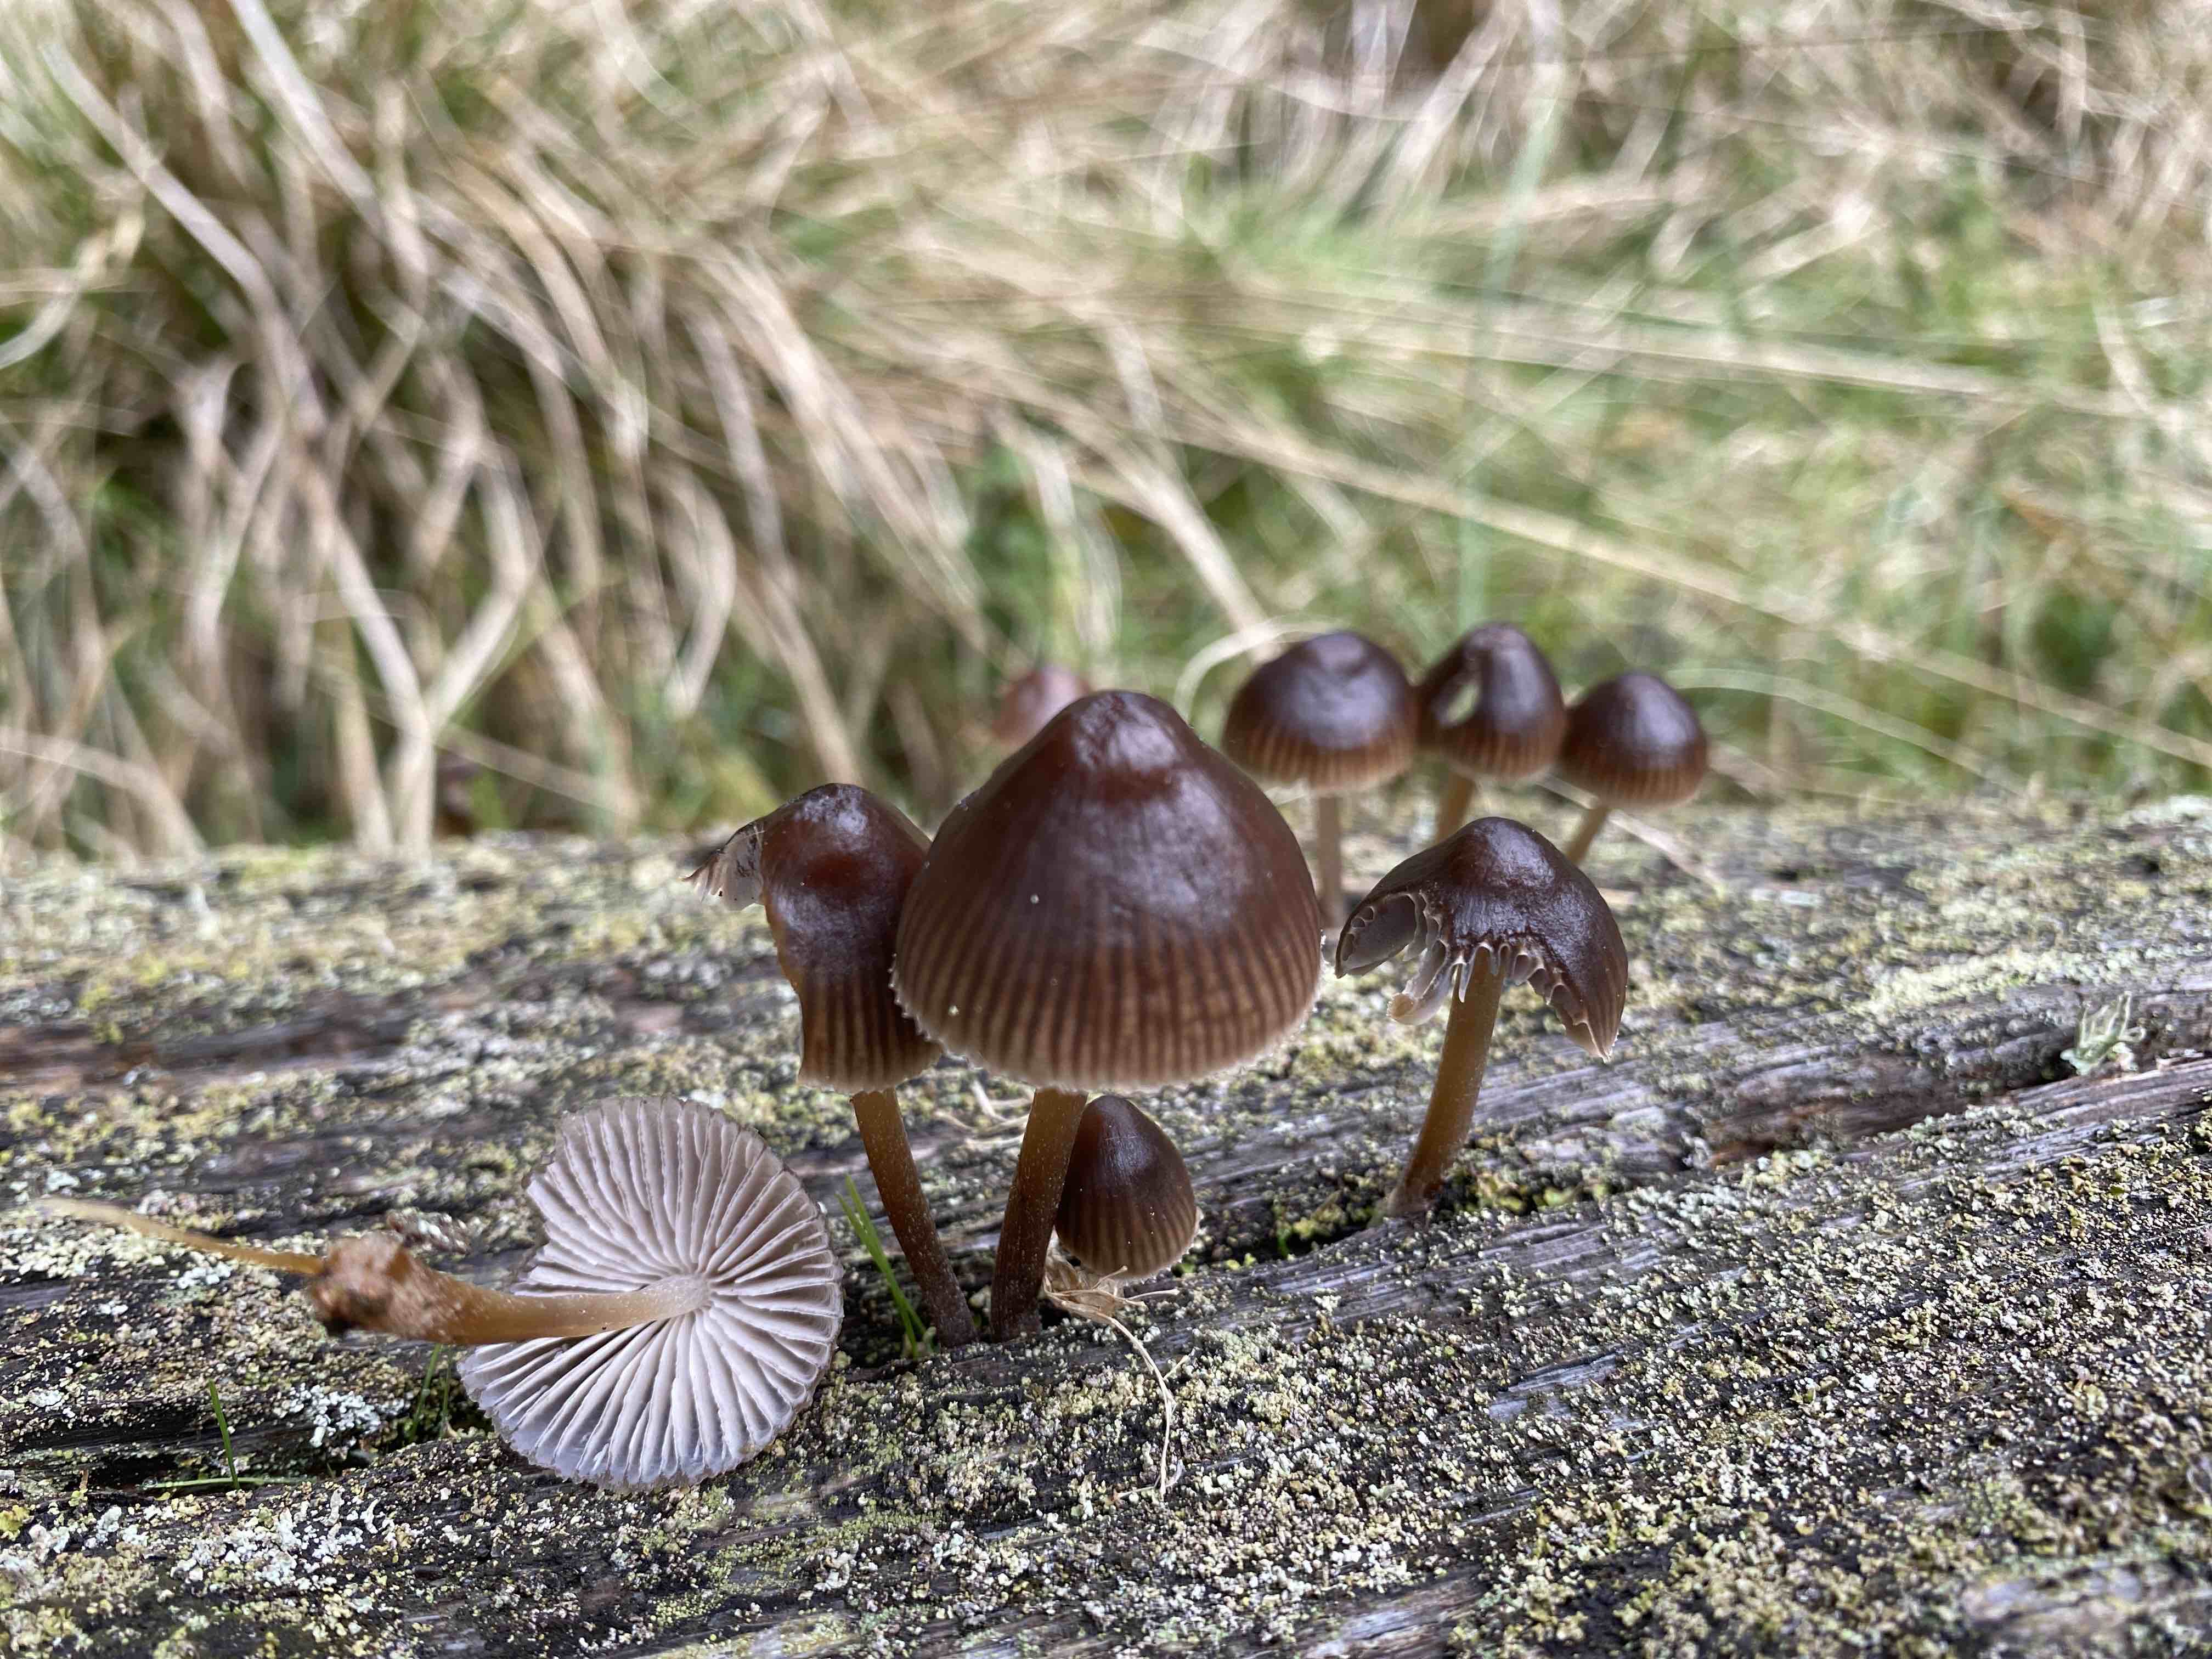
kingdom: Fungi
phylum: Basidiomycota
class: Agaricomycetes
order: Agaricales
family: Mycenaceae
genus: Mycena
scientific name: Mycena inclinata
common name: nikkende huesvamp
